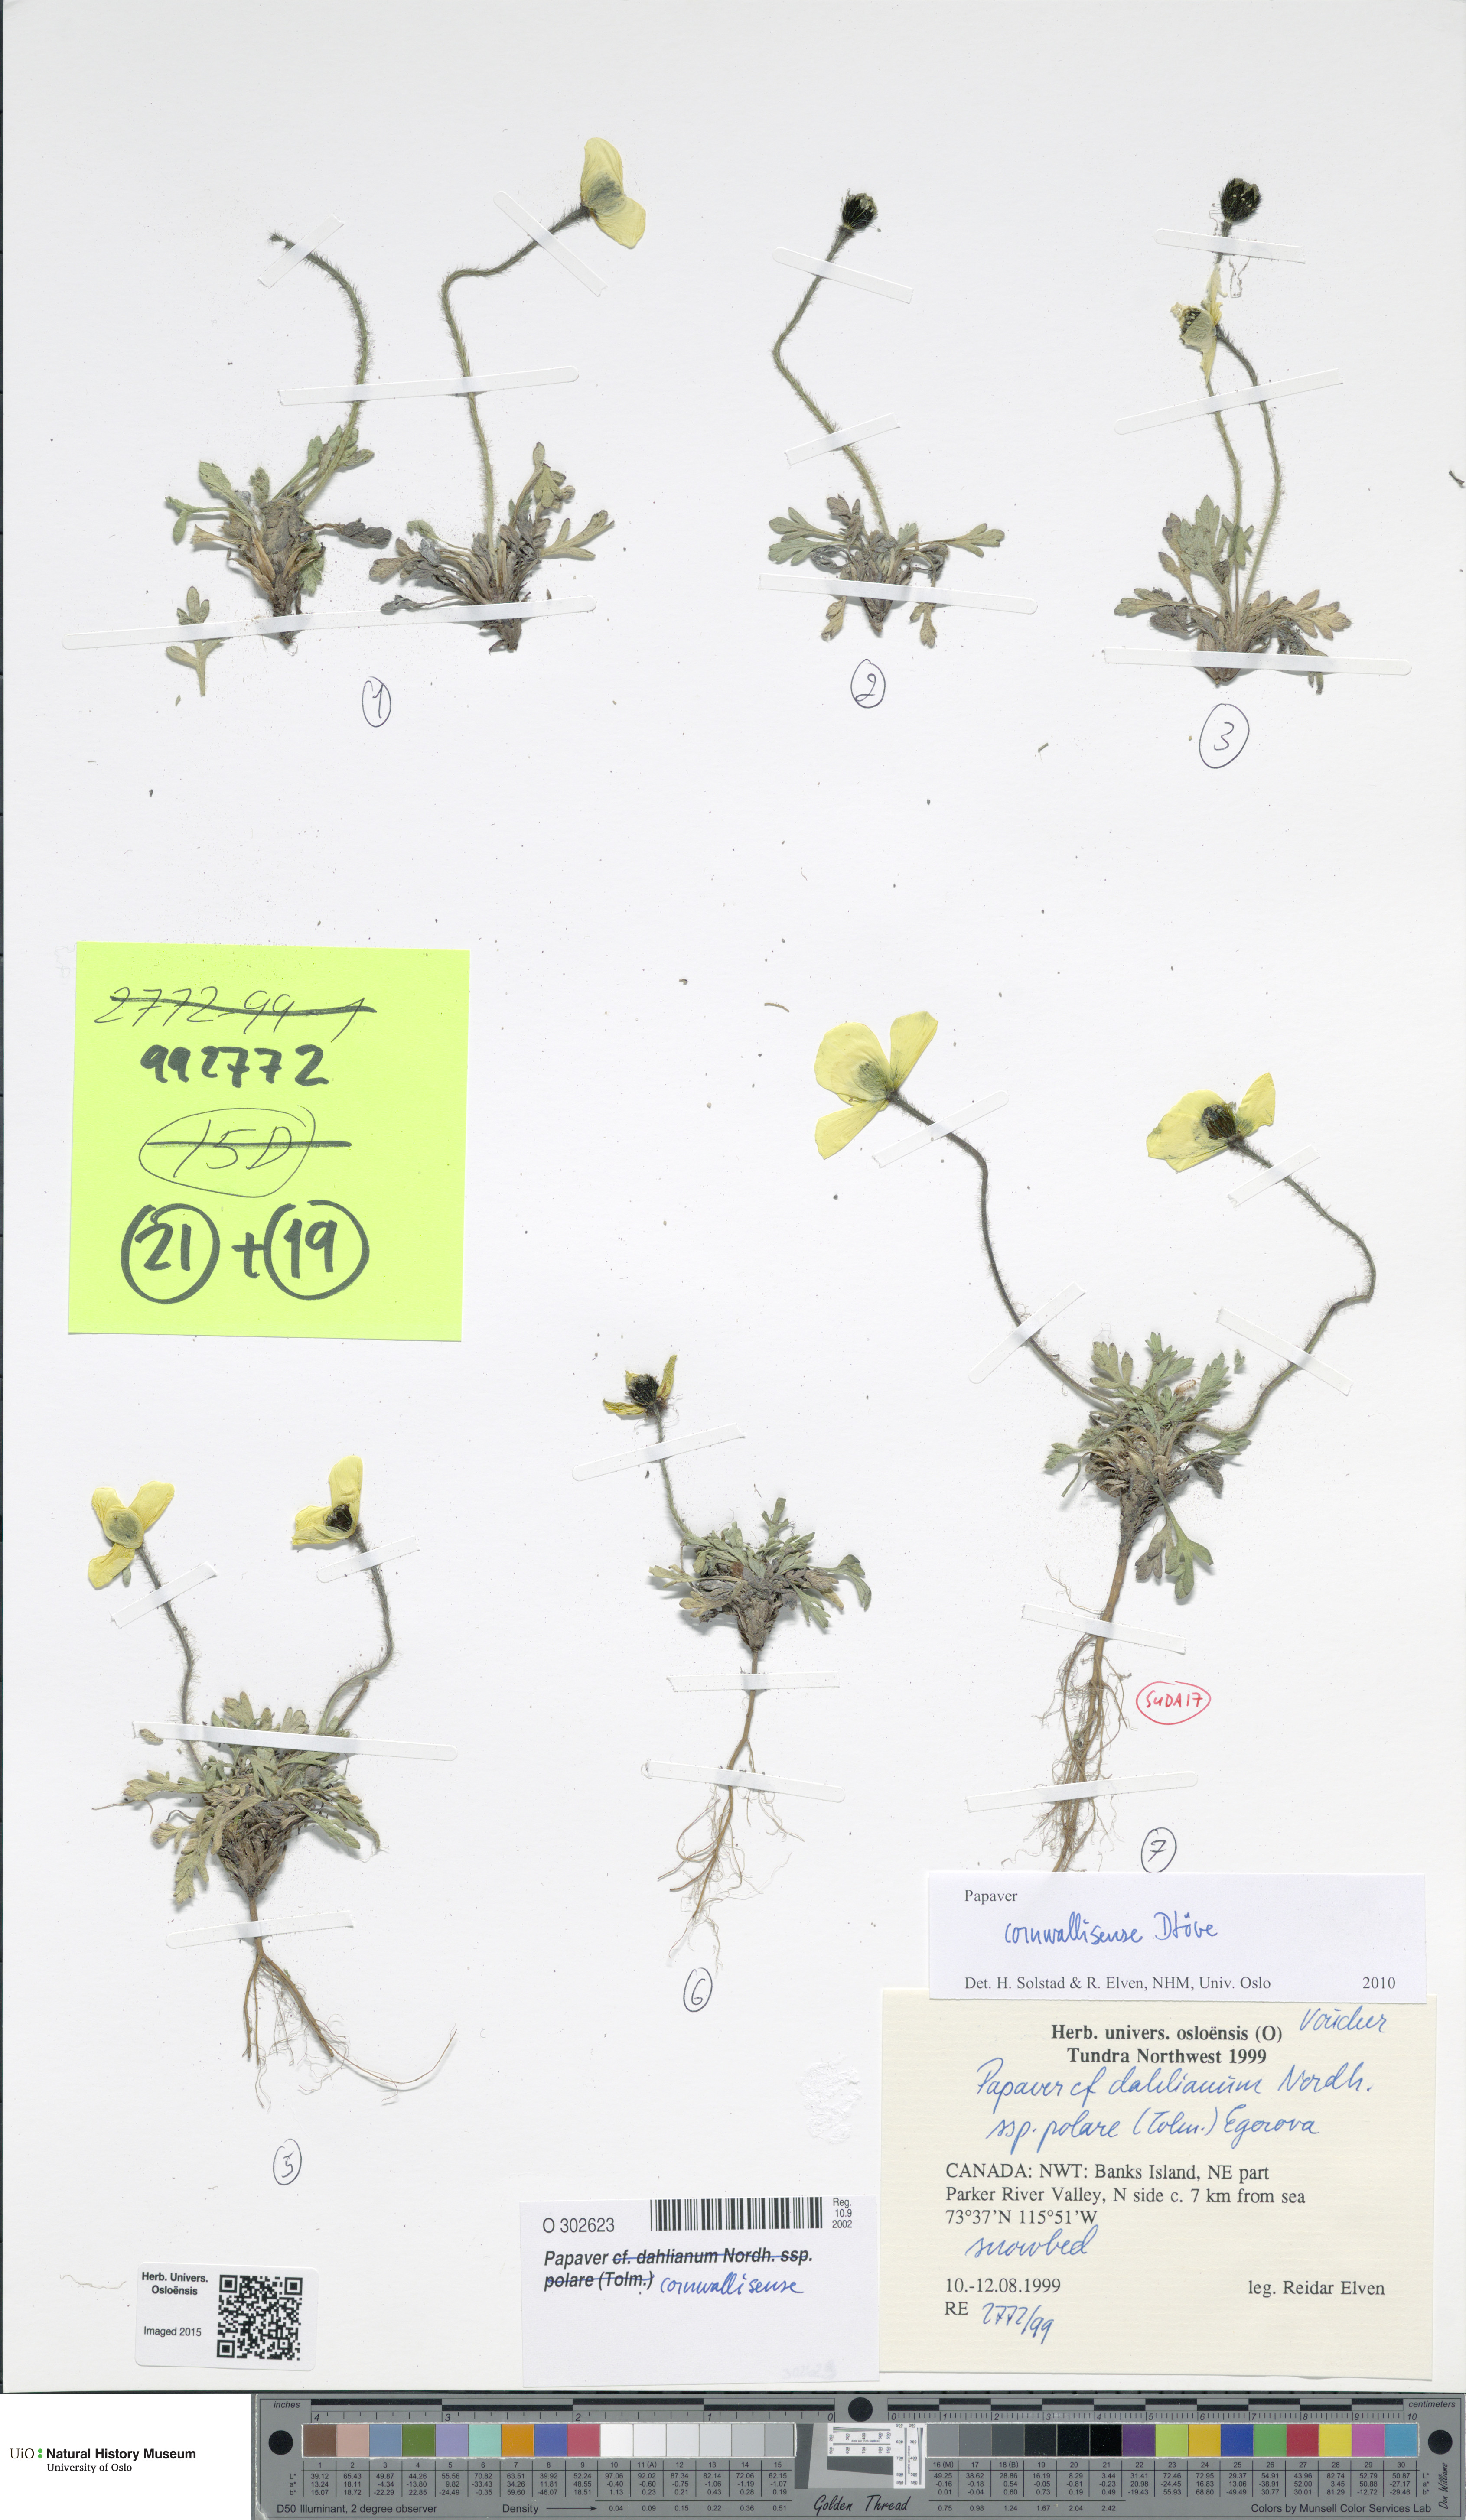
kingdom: Plantae
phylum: Tracheophyta
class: Magnoliopsida
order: Ranunculales
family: Papaveraceae
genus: Papaver
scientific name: Papaver radicatum
